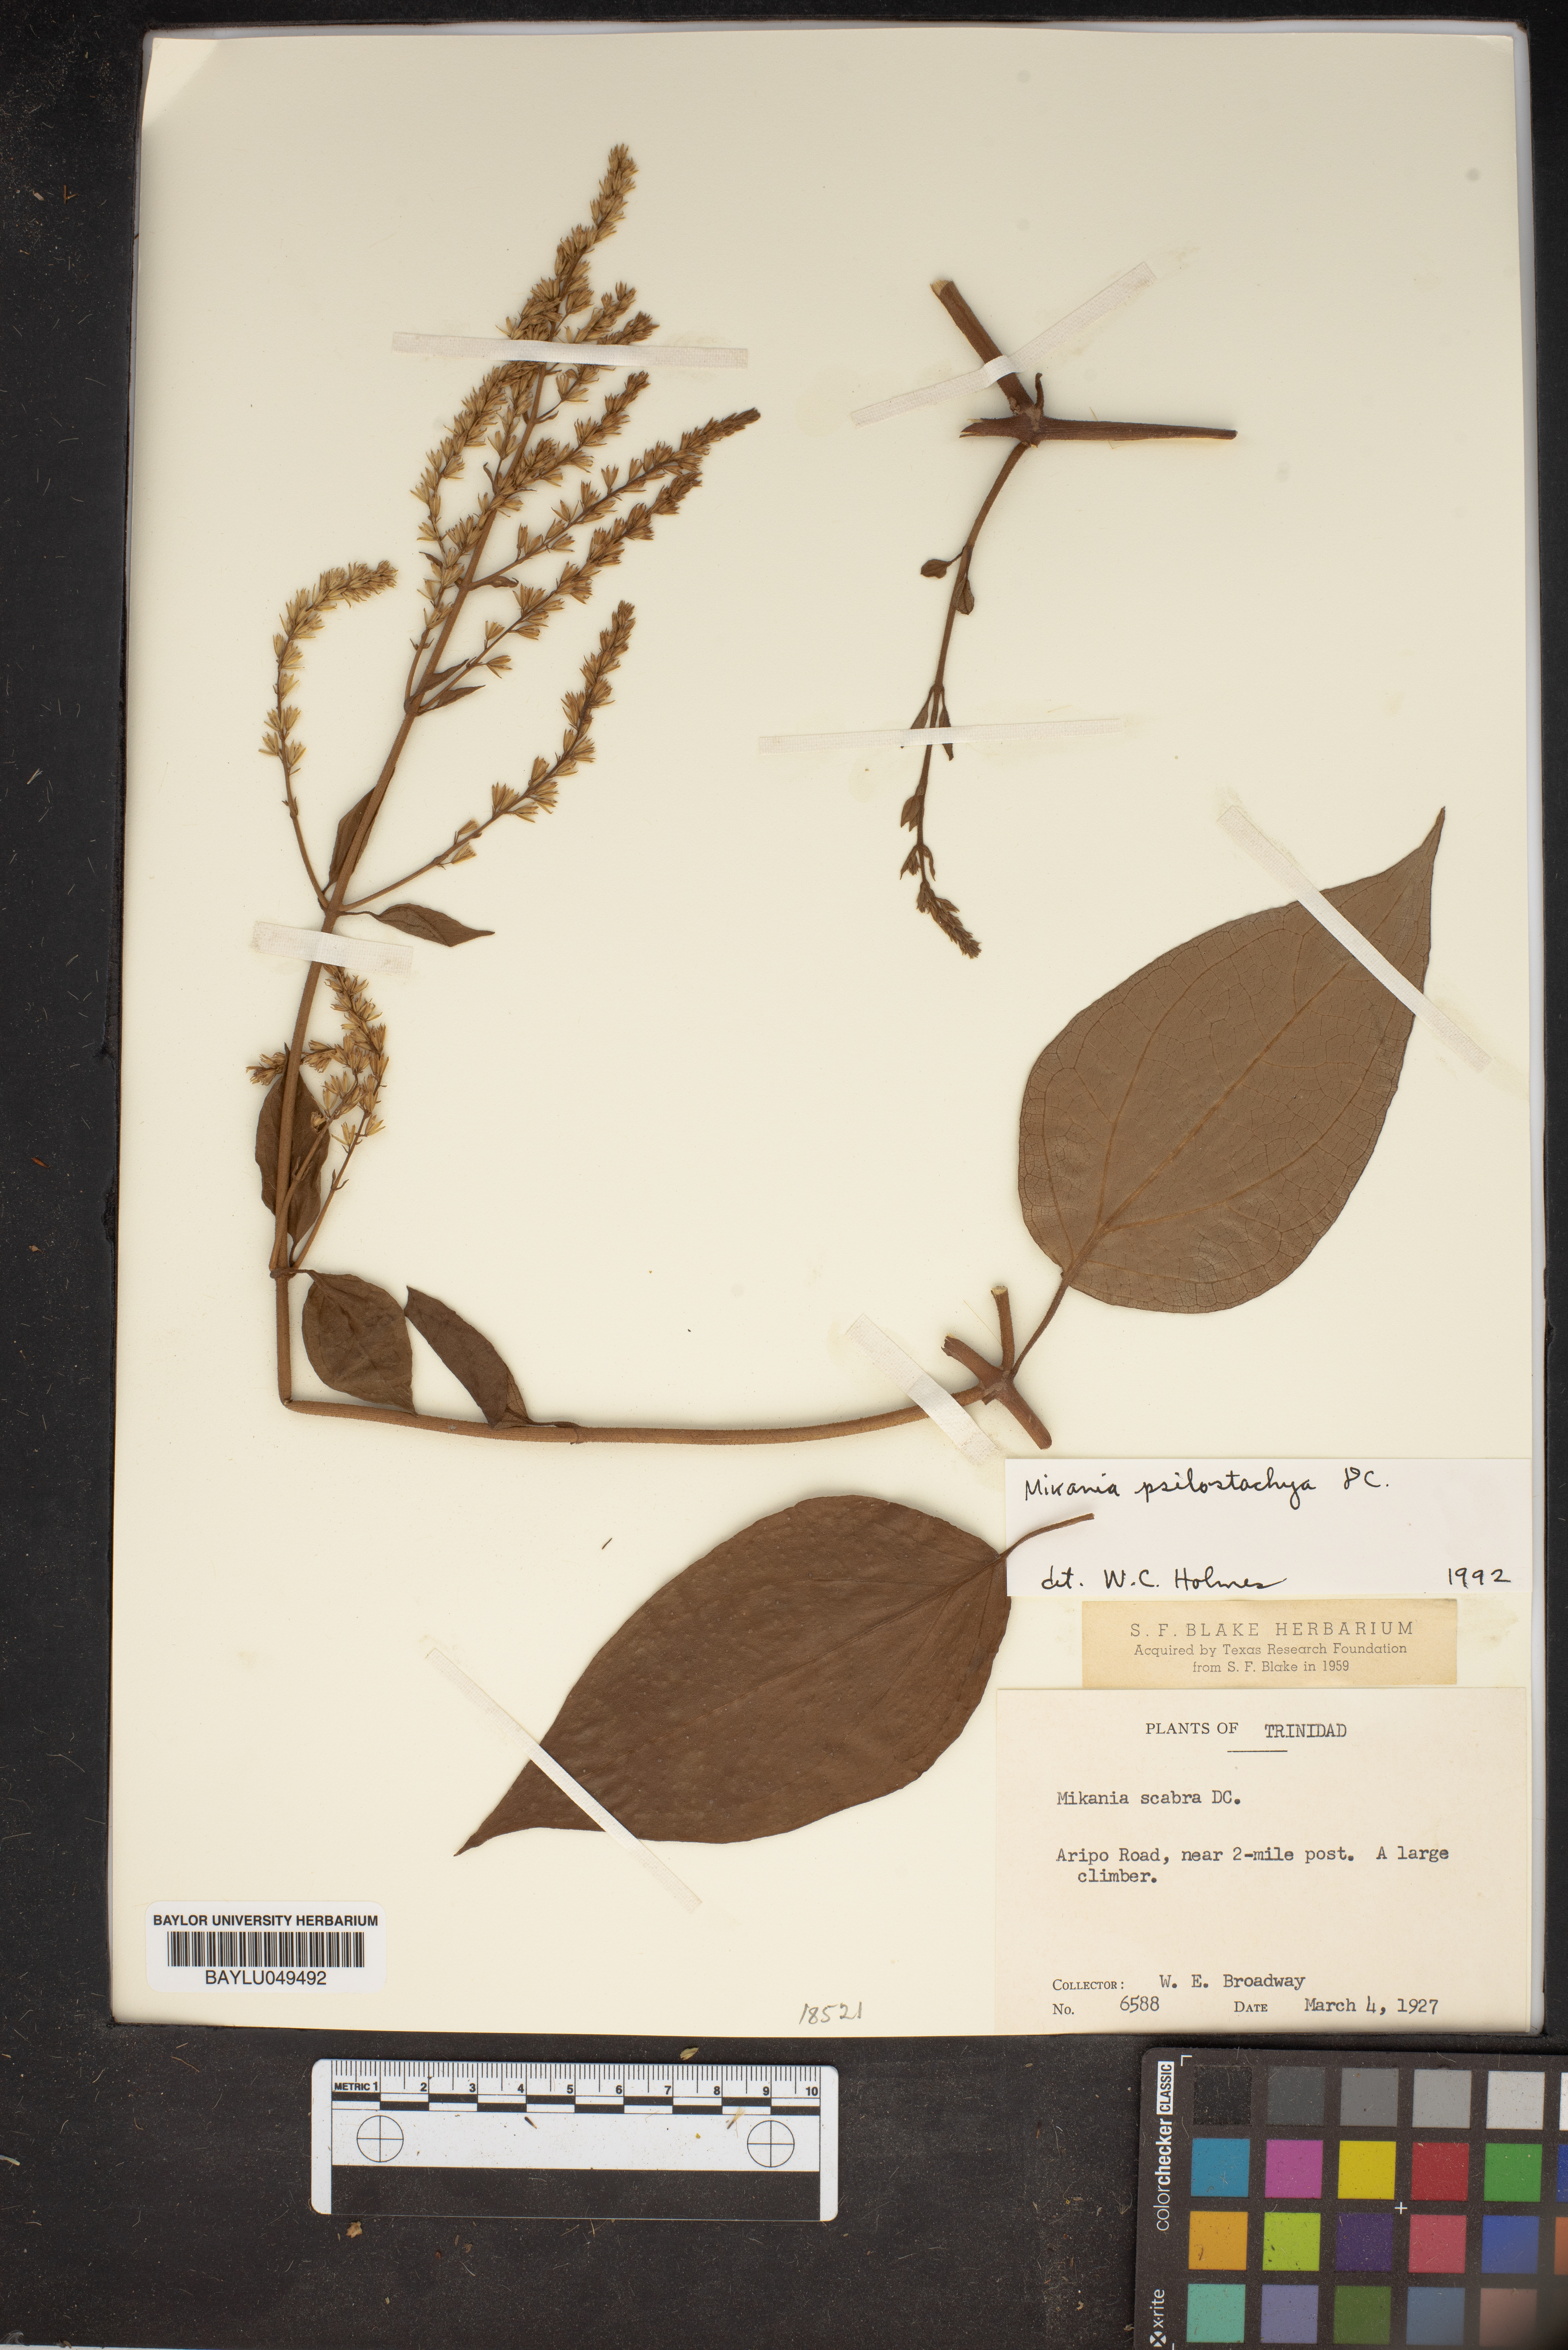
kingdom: Plantae
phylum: Tracheophyta
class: Magnoliopsida
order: Asterales
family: Asteraceae
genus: Mikania
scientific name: Mikania psilostachya
